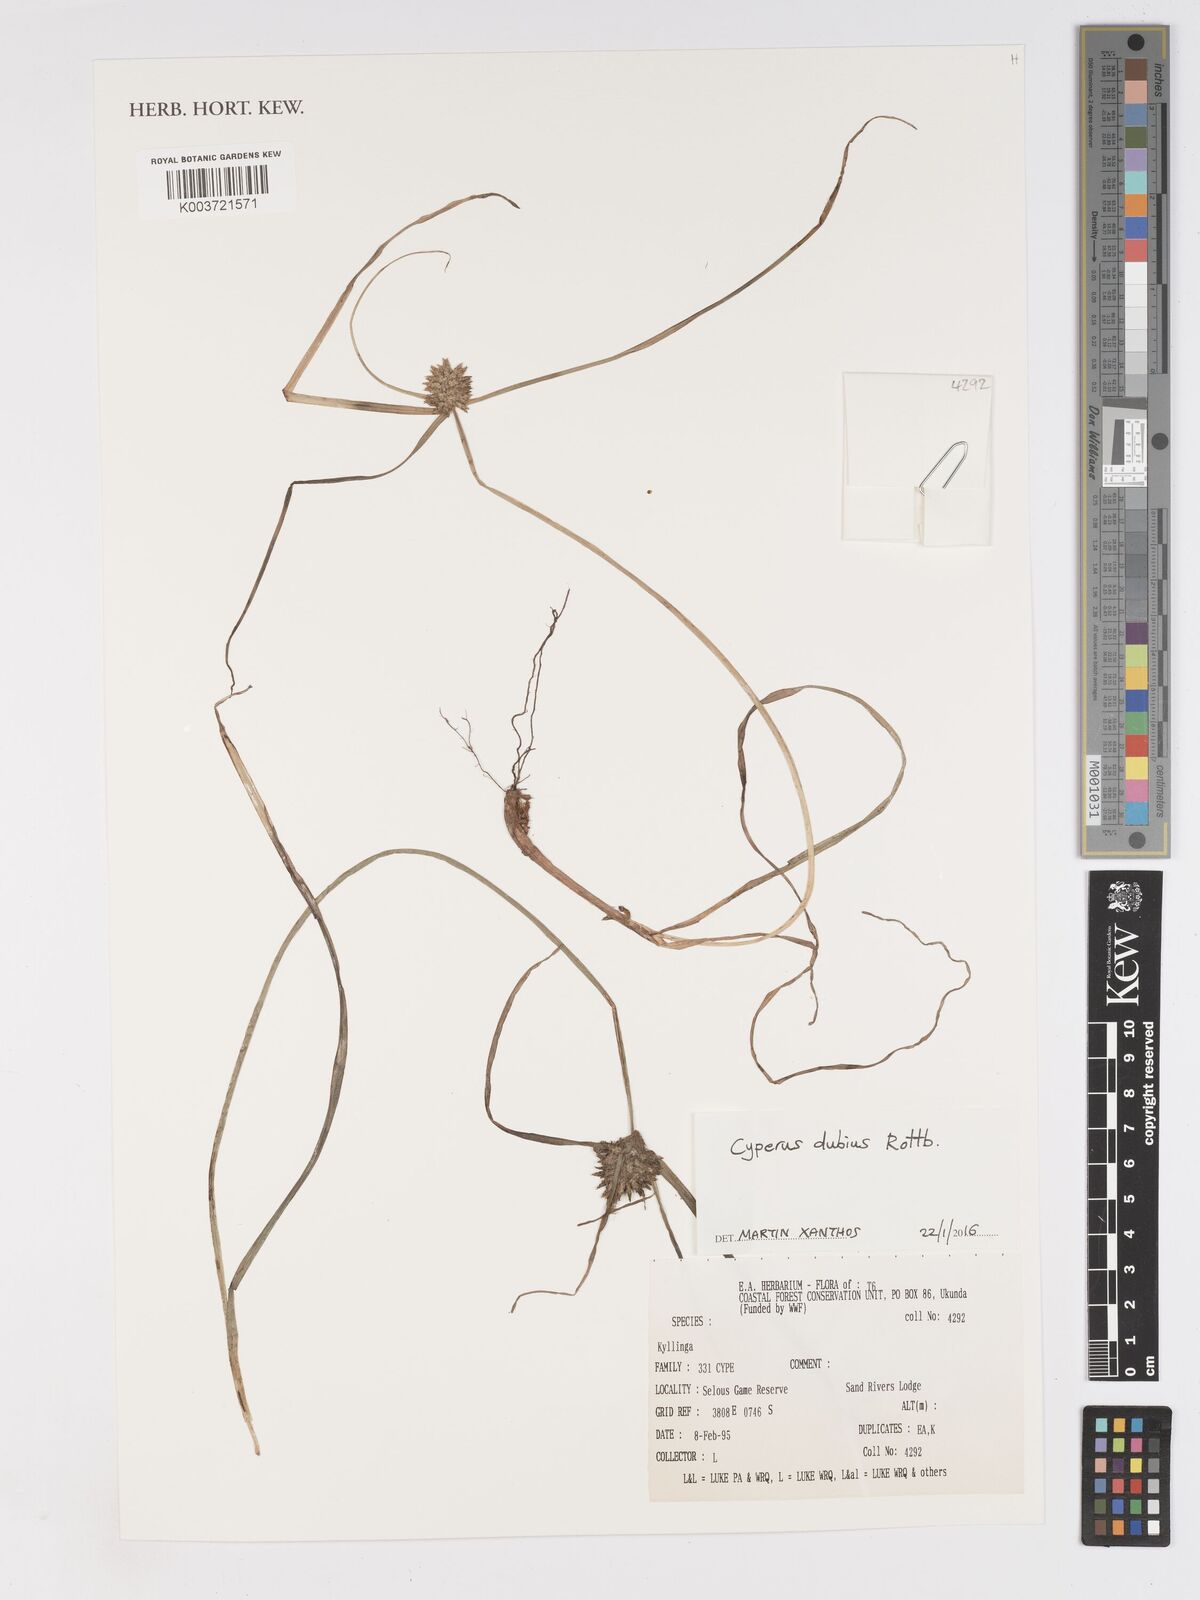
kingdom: Plantae
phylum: Tracheophyta
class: Liliopsida
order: Poales
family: Cyperaceae
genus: Cyperus
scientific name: Cyperus dubius
